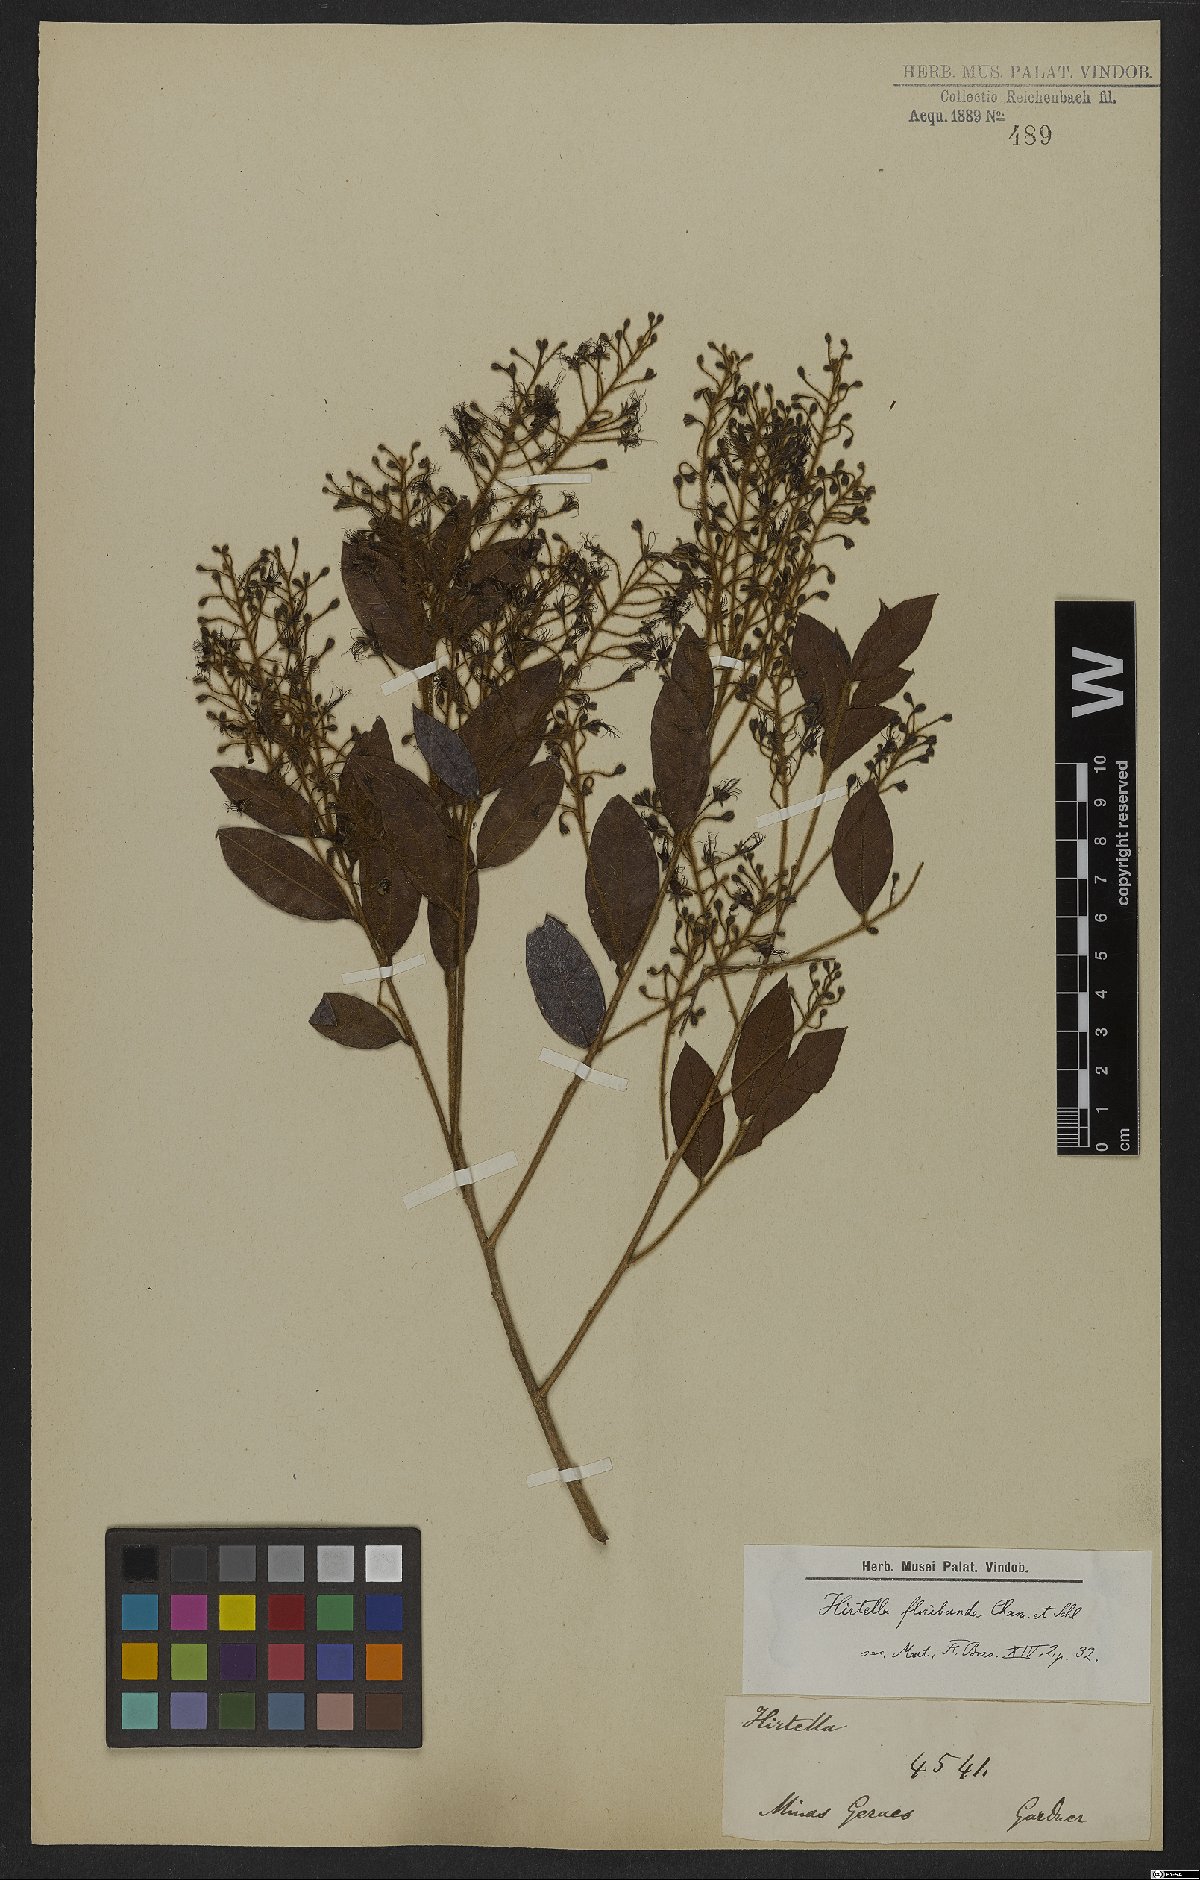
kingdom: Plantae
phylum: Tracheophyta
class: Magnoliopsida
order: Malpighiales
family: Chrysobalanaceae
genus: Hirtella
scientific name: Hirtella floribunda
